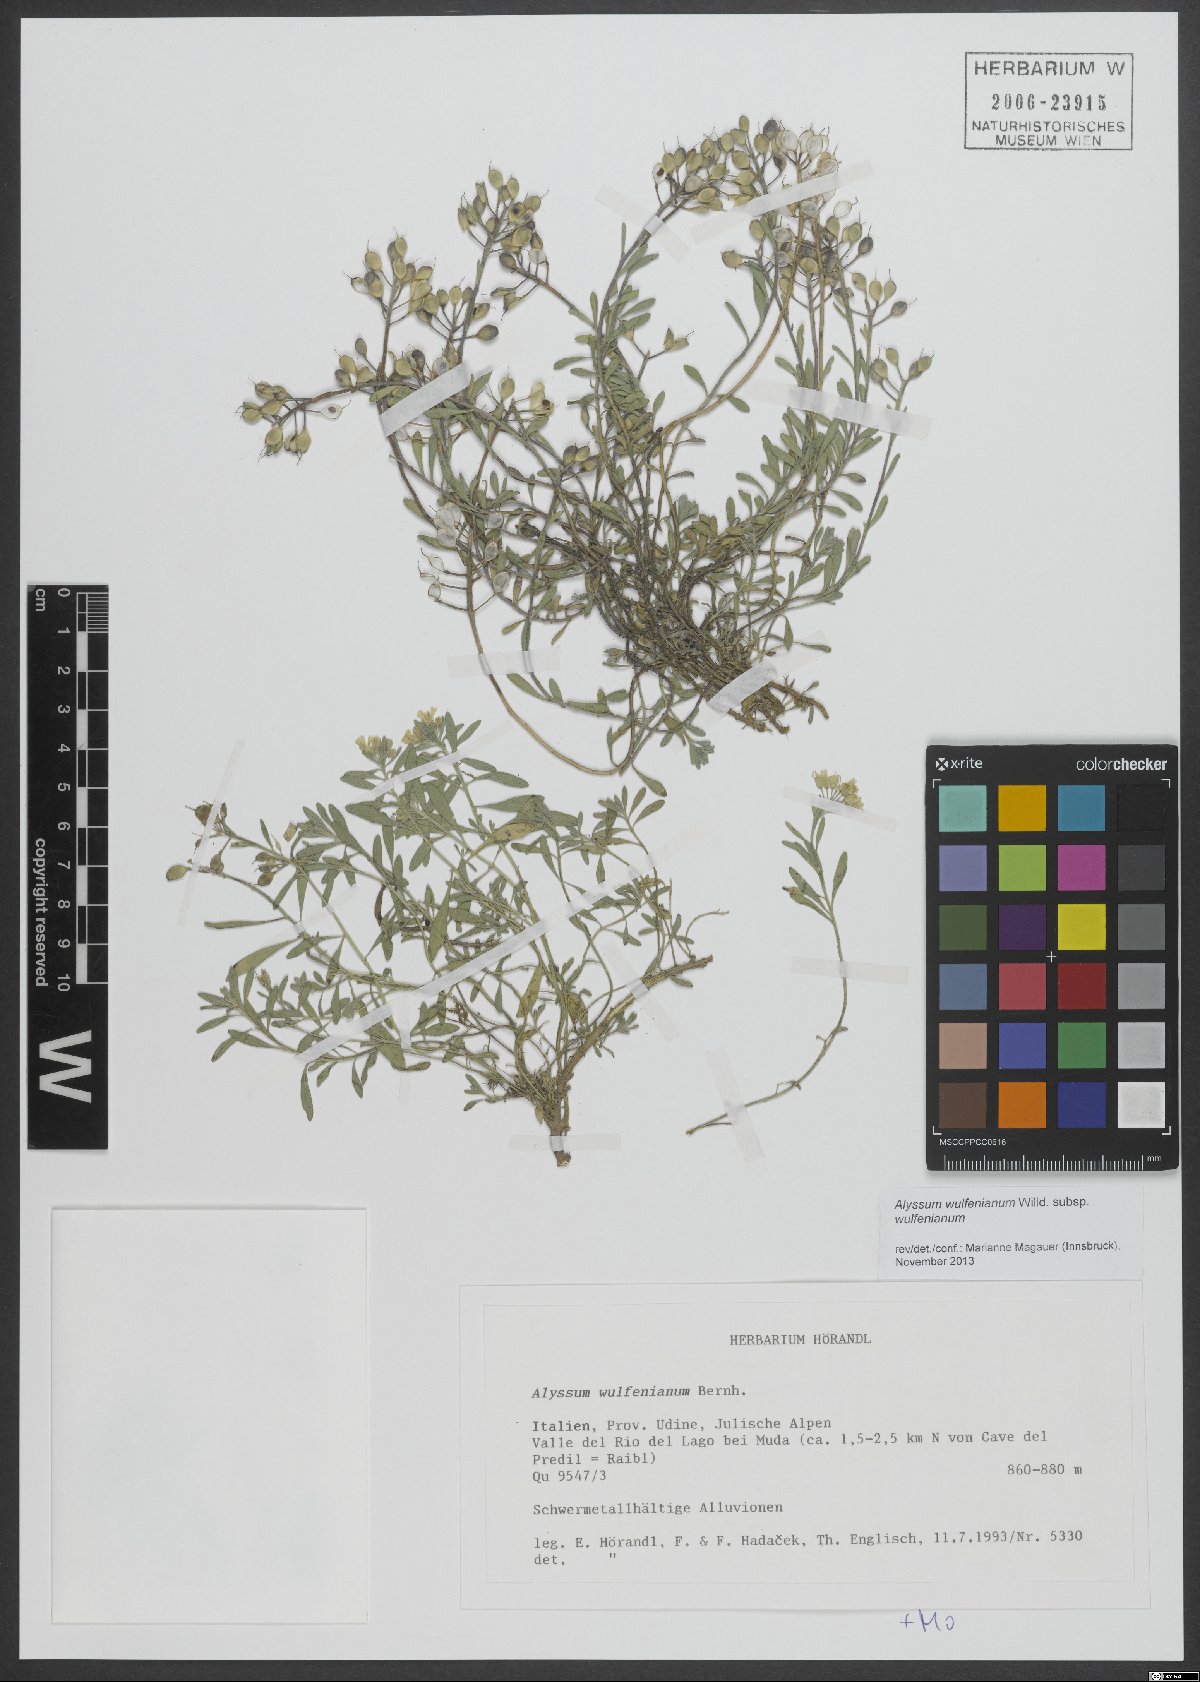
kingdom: Plantae
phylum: Tracheophyta
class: Magnoliopsida
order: Brassicales
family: Brassicaceae
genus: Alyssum
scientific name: Alyssum wulfenianum
